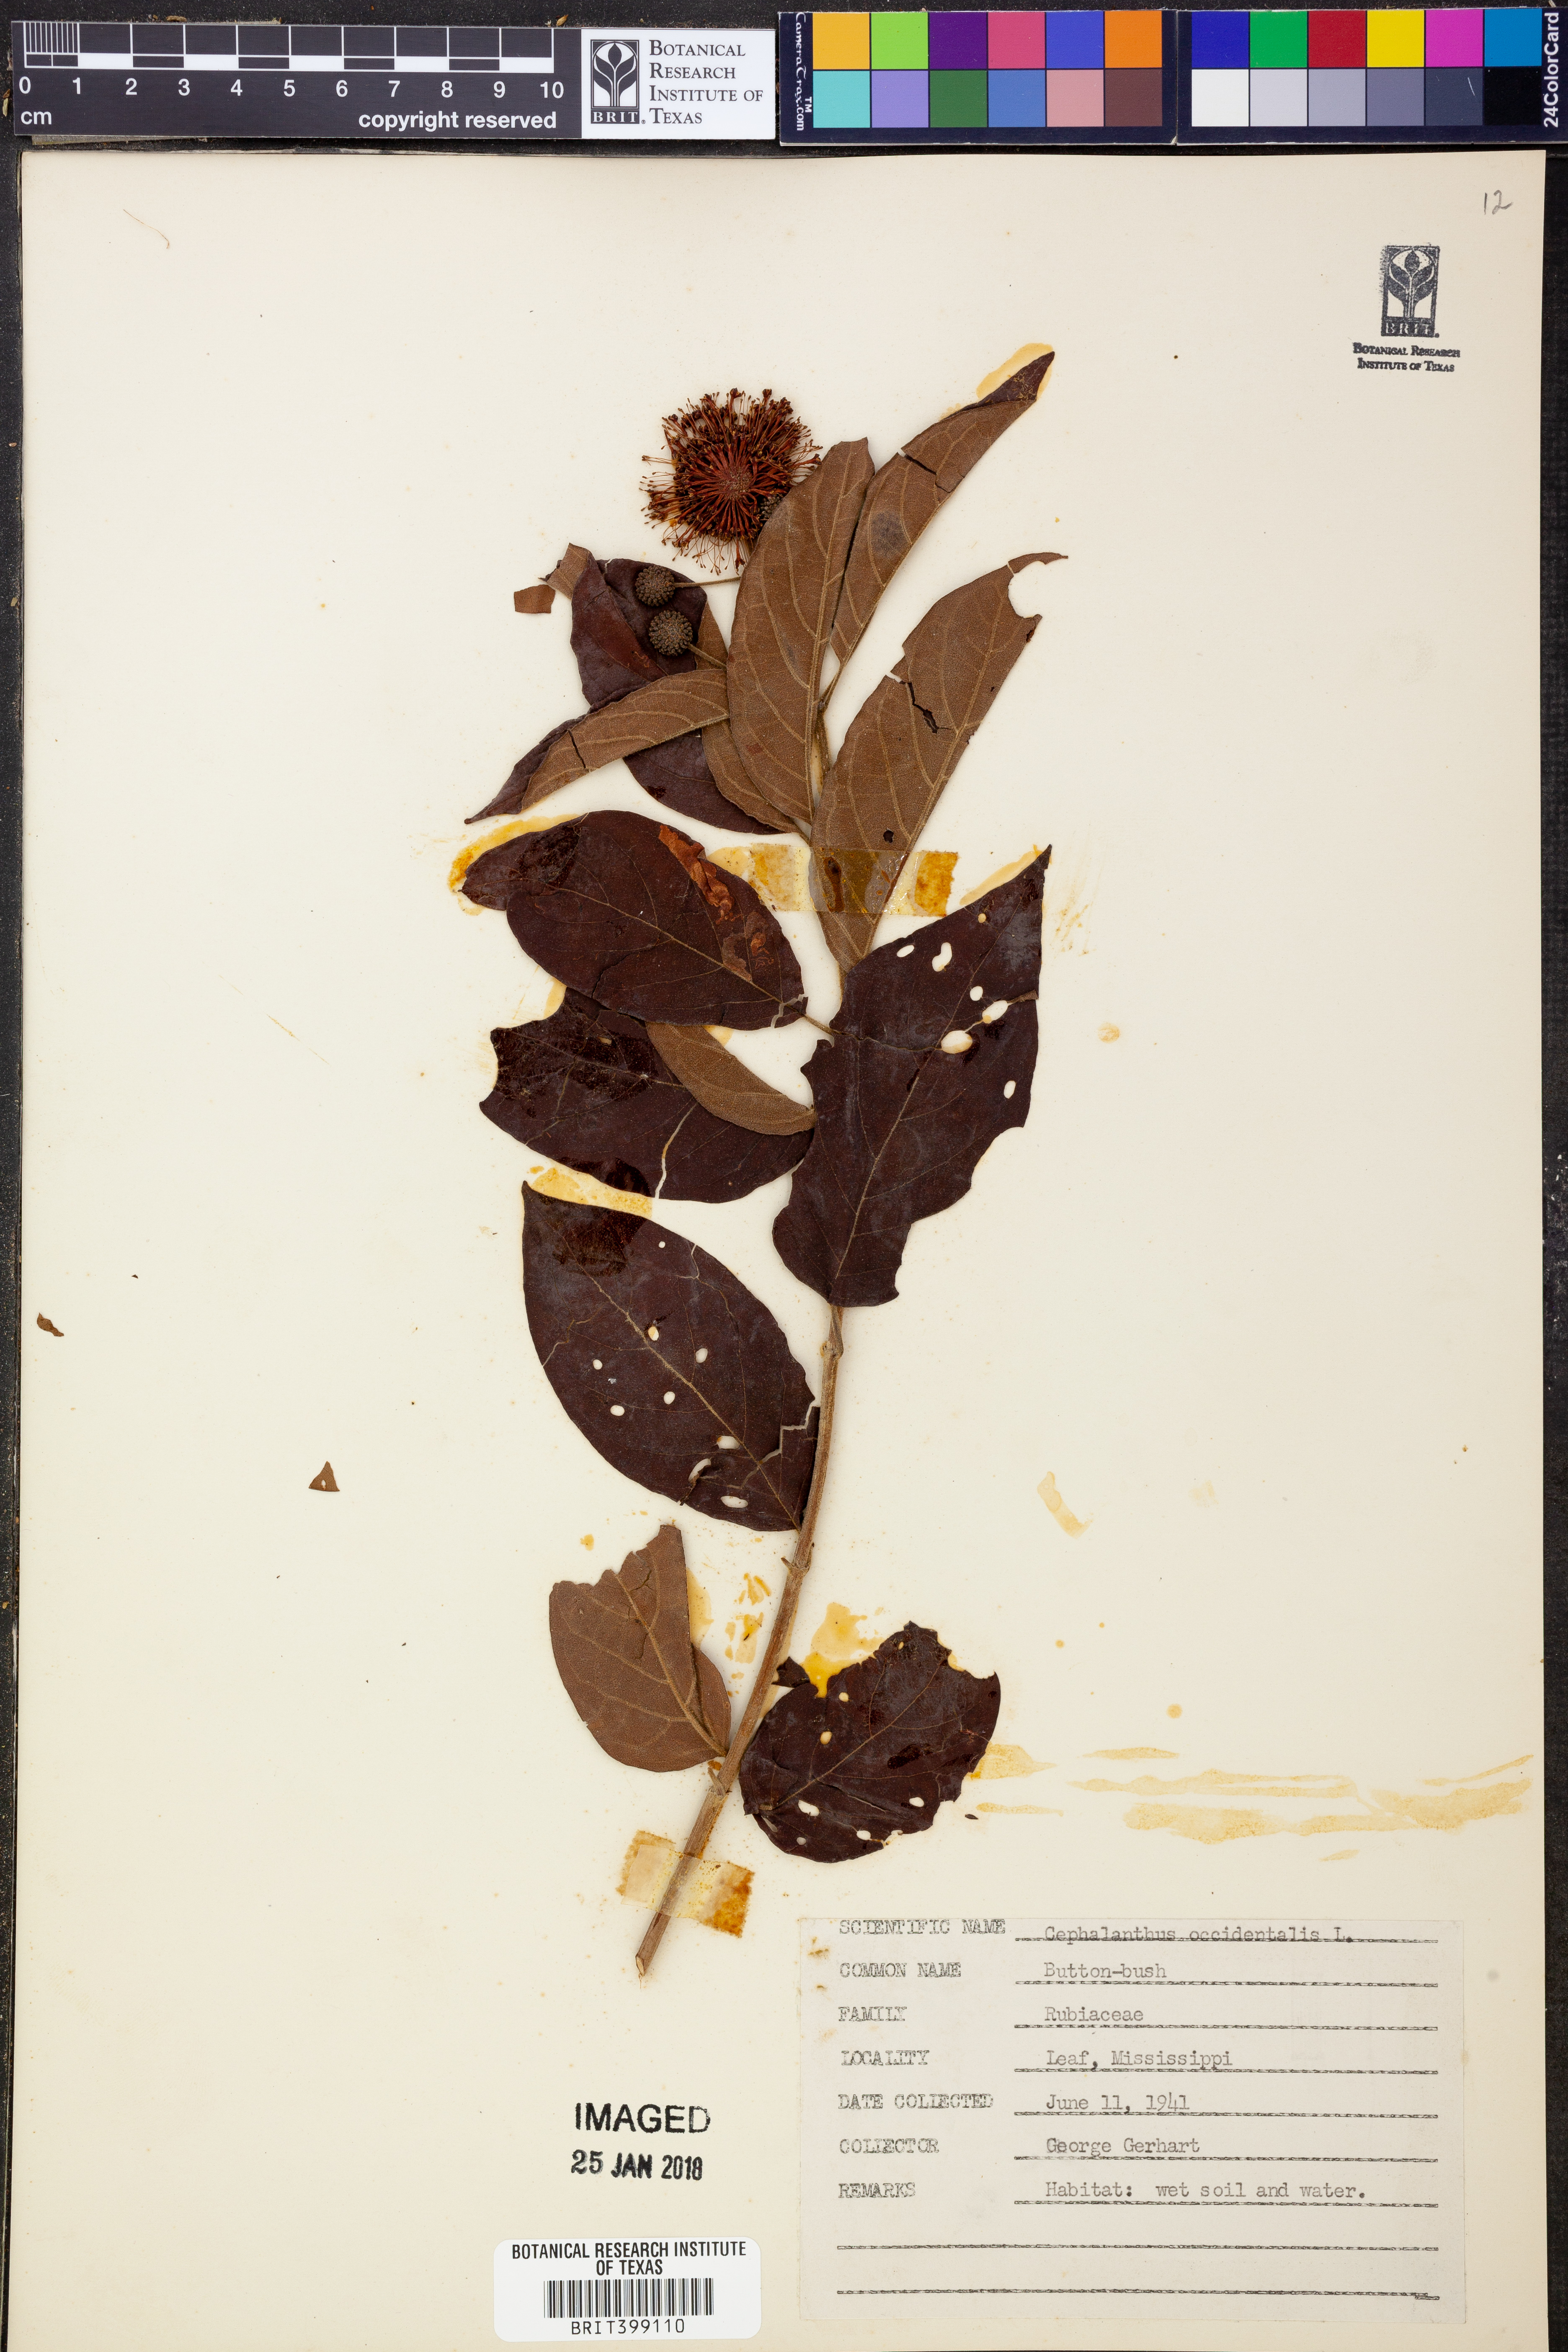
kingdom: Plantae
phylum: Tracheophyta
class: Magnoliopsida
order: Gentianales
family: Rubiaceae
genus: Cephalanthus
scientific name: Cephalanthus occidentalis
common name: Button-willow
